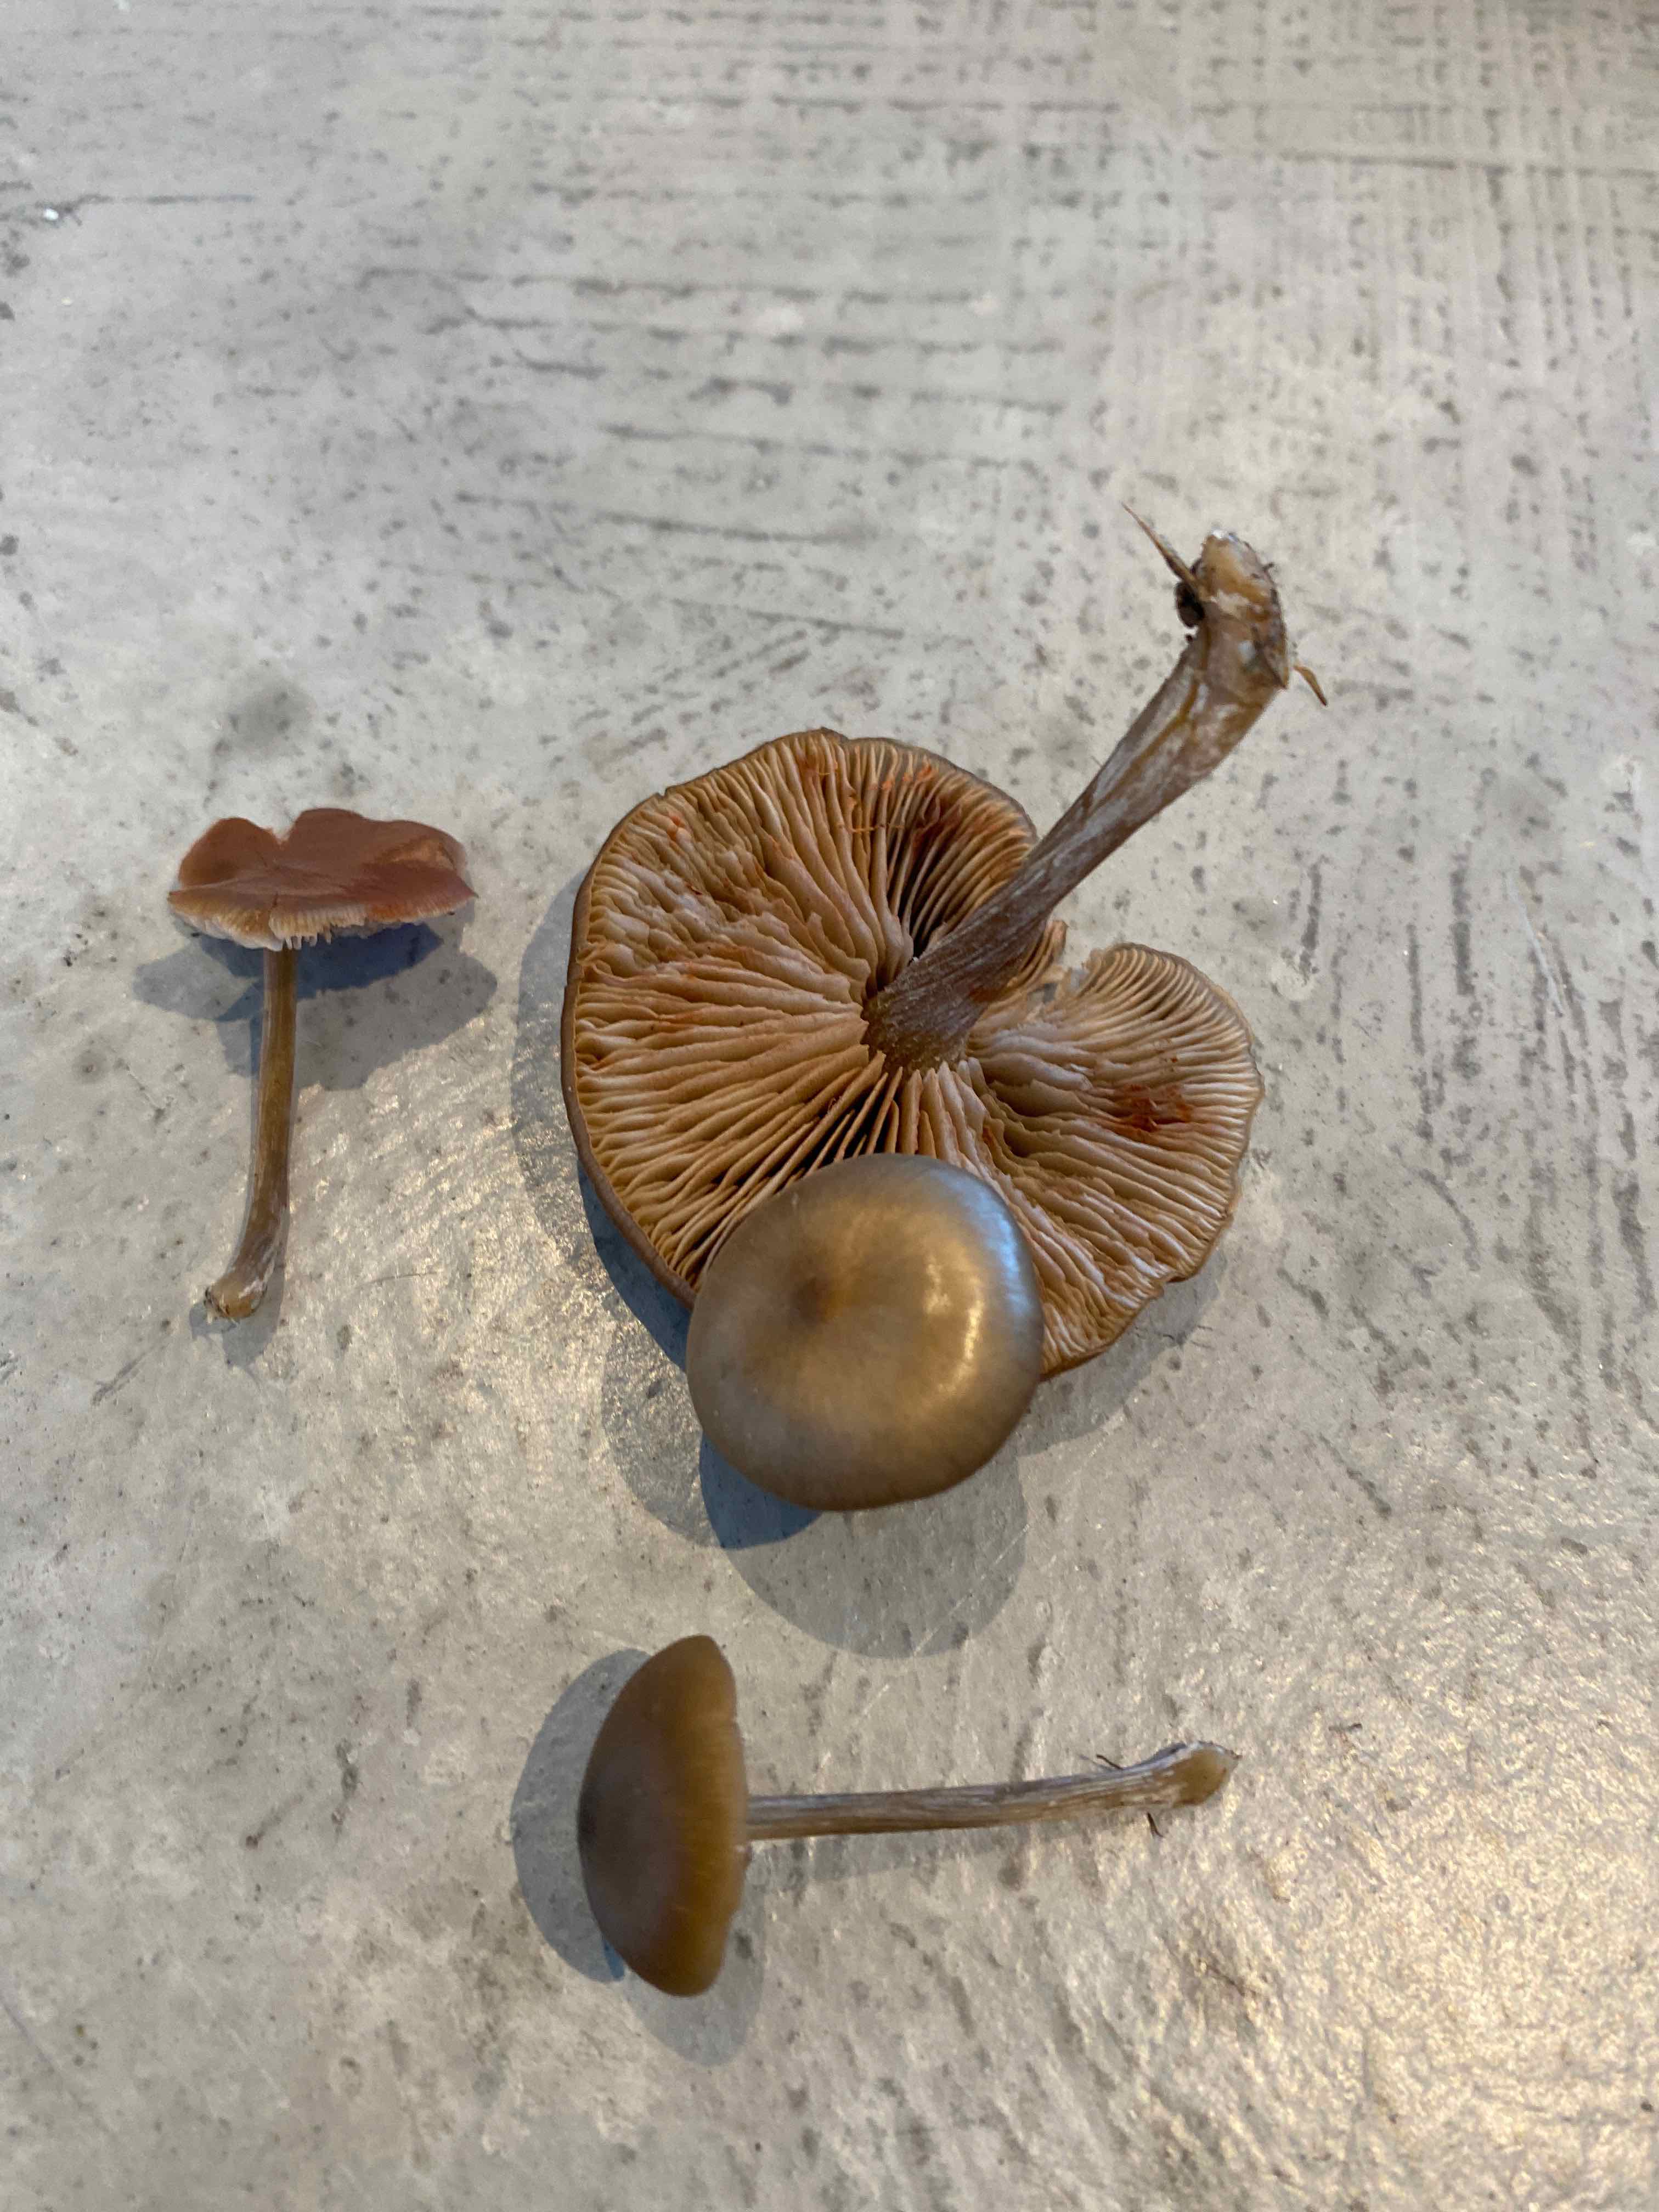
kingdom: Fungi
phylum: Basidiomycota
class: Agaricomycetes
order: Agaricales
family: Entolomataceae
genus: Entoloma
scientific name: Entoloma
